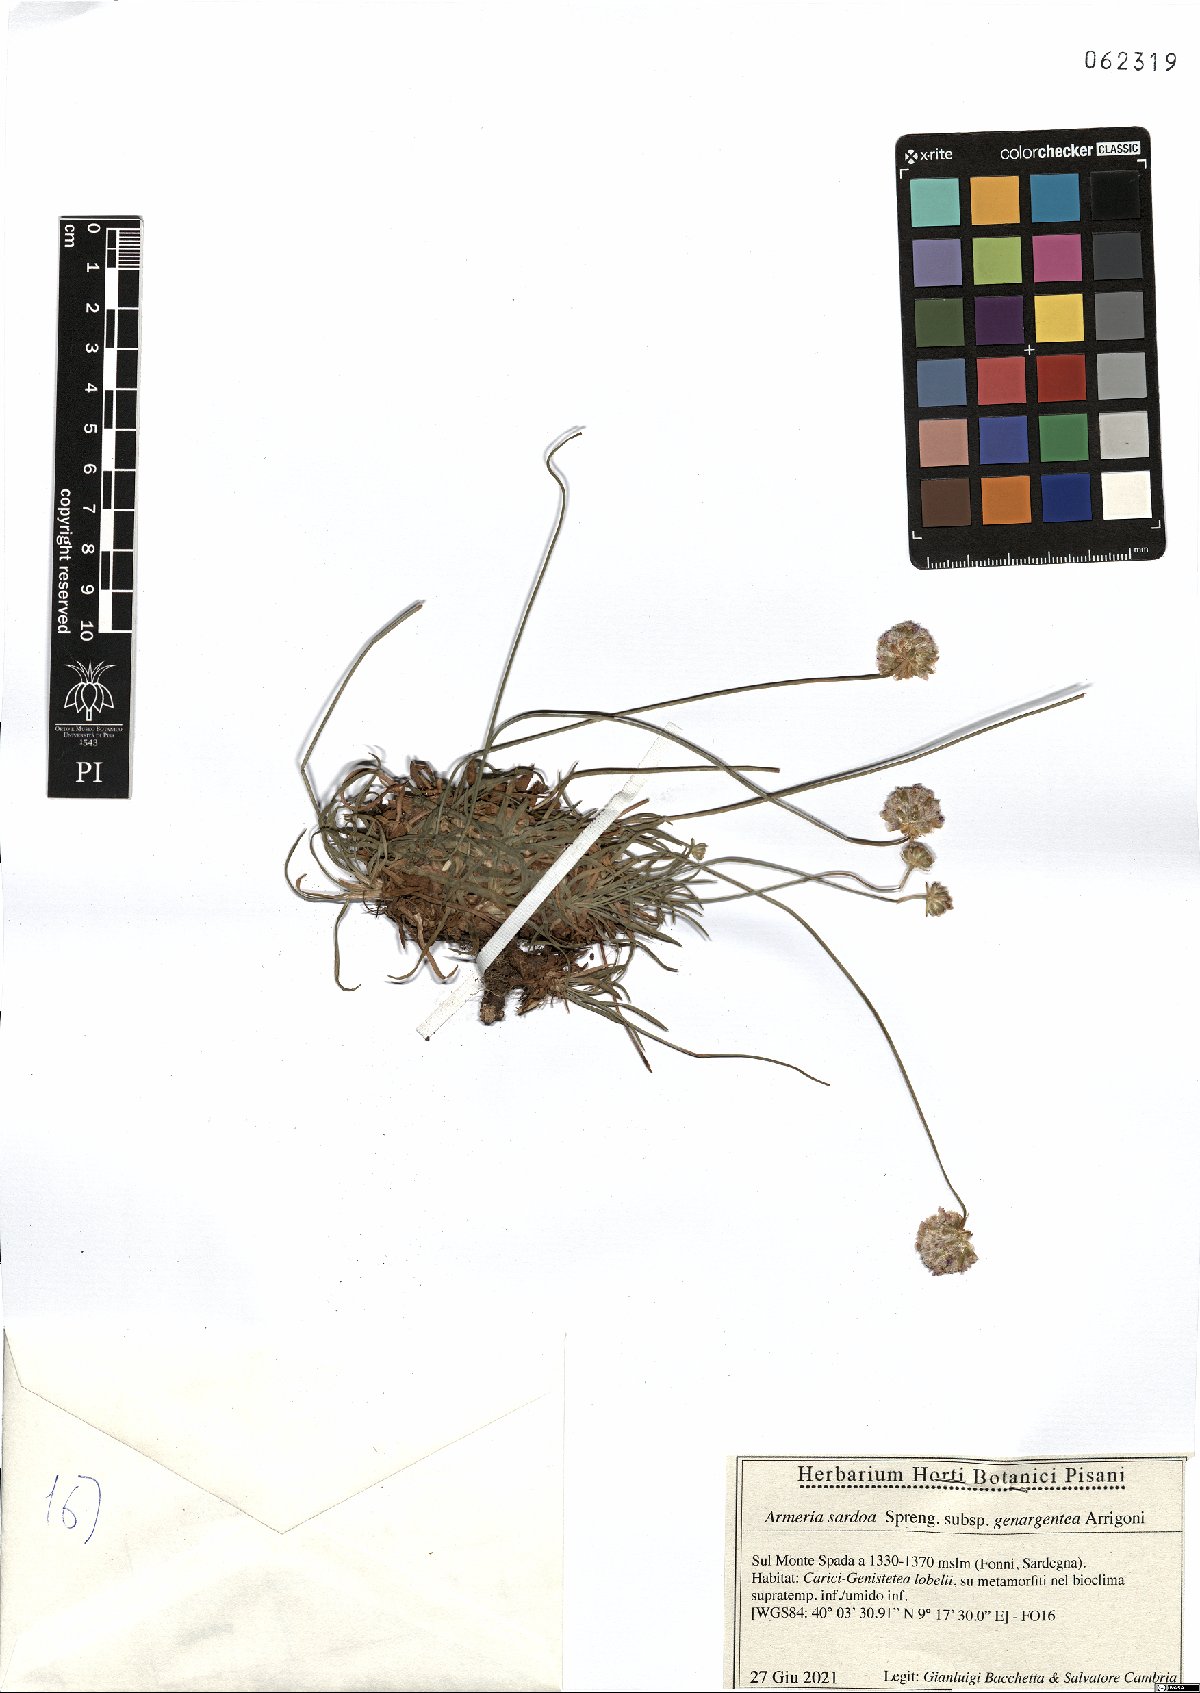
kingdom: Plantae
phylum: Tracheophyta
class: Magnoliopsida
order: Caryophyllales
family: Plumbaginaceae
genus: Armeria
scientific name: Armeria sardoa
